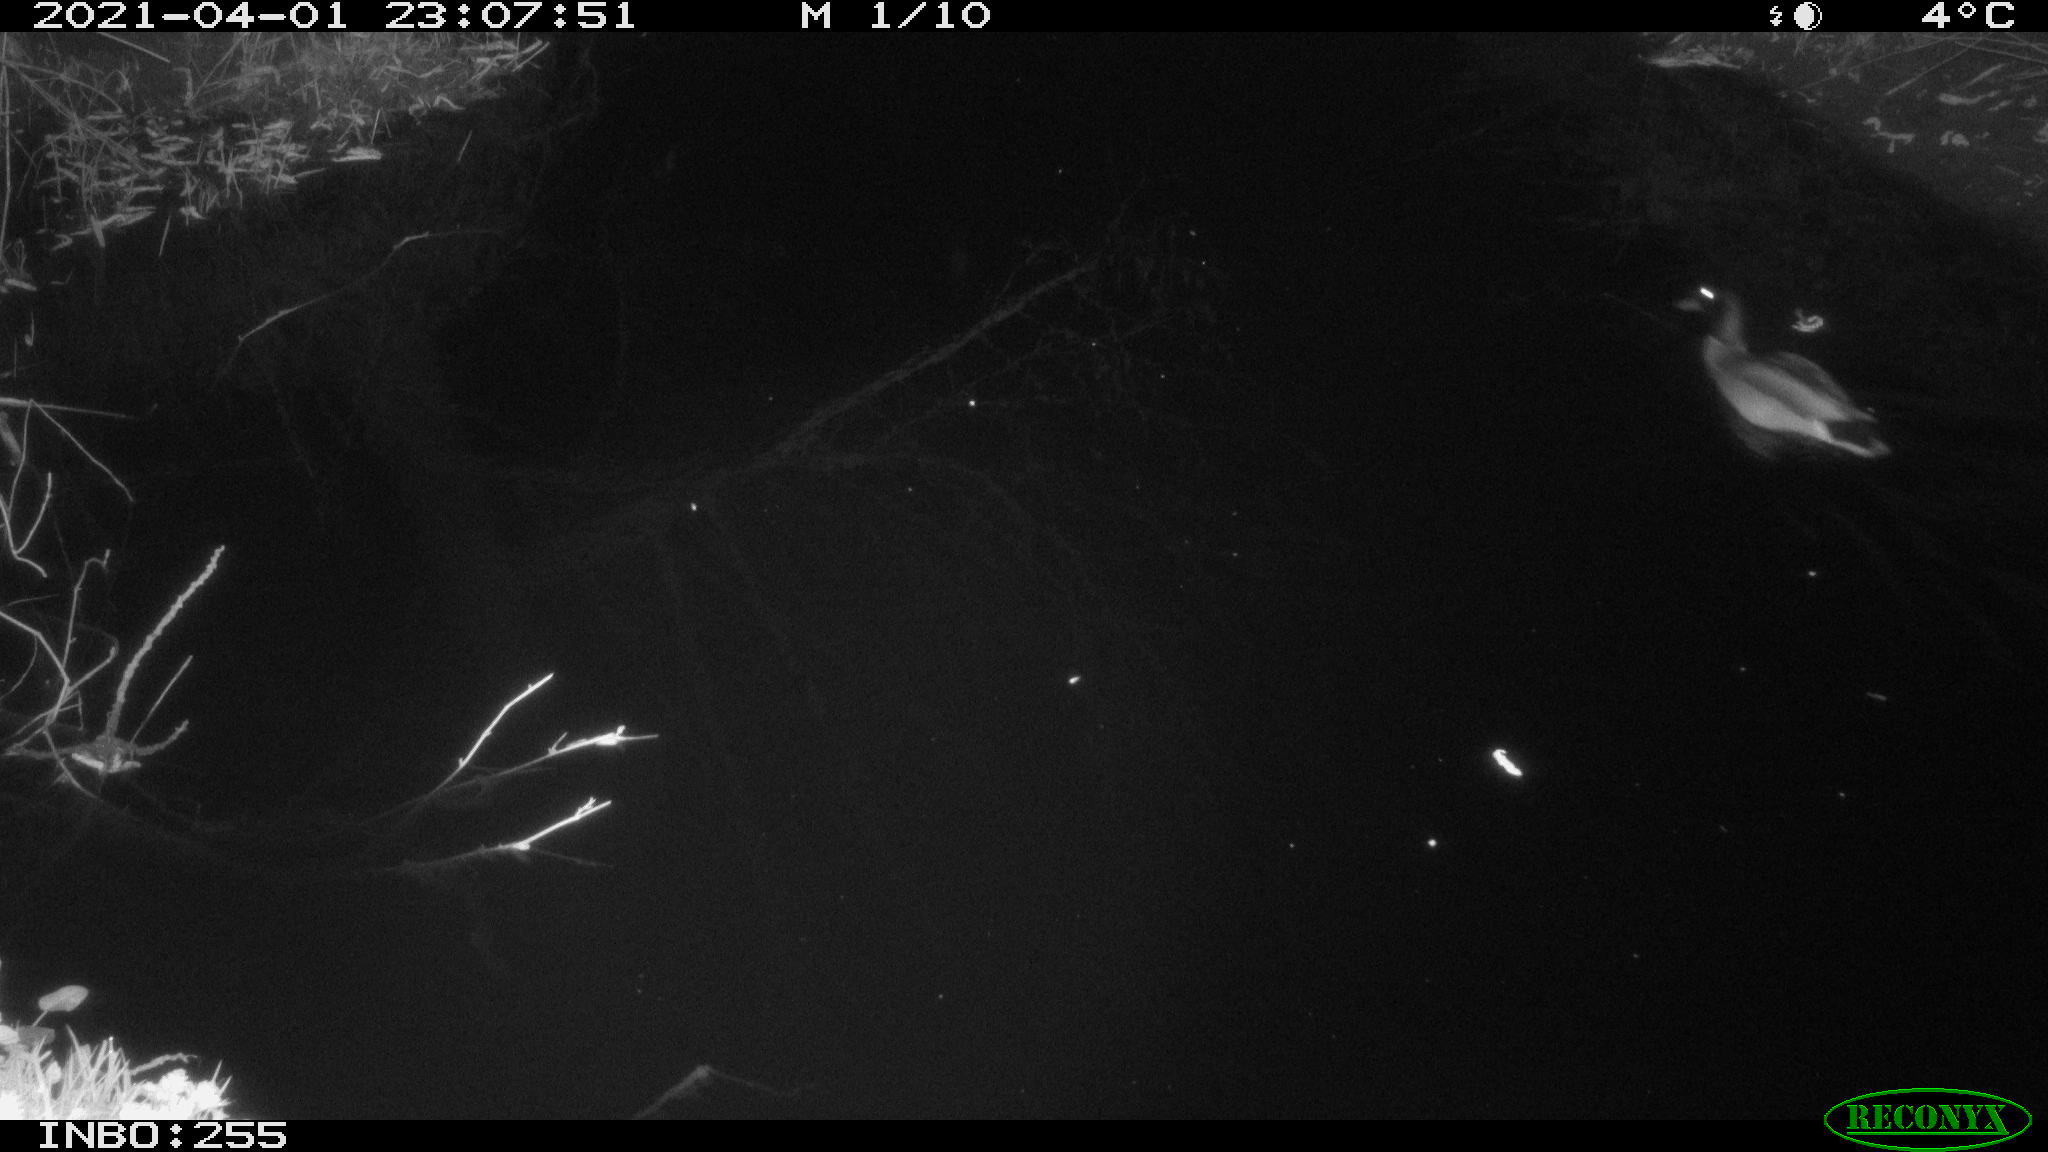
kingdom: Animalia
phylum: Chordata
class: Aves
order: Anseriformes
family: Anatidae
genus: Anas
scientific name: Anas platyrhynchos
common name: Mallard
